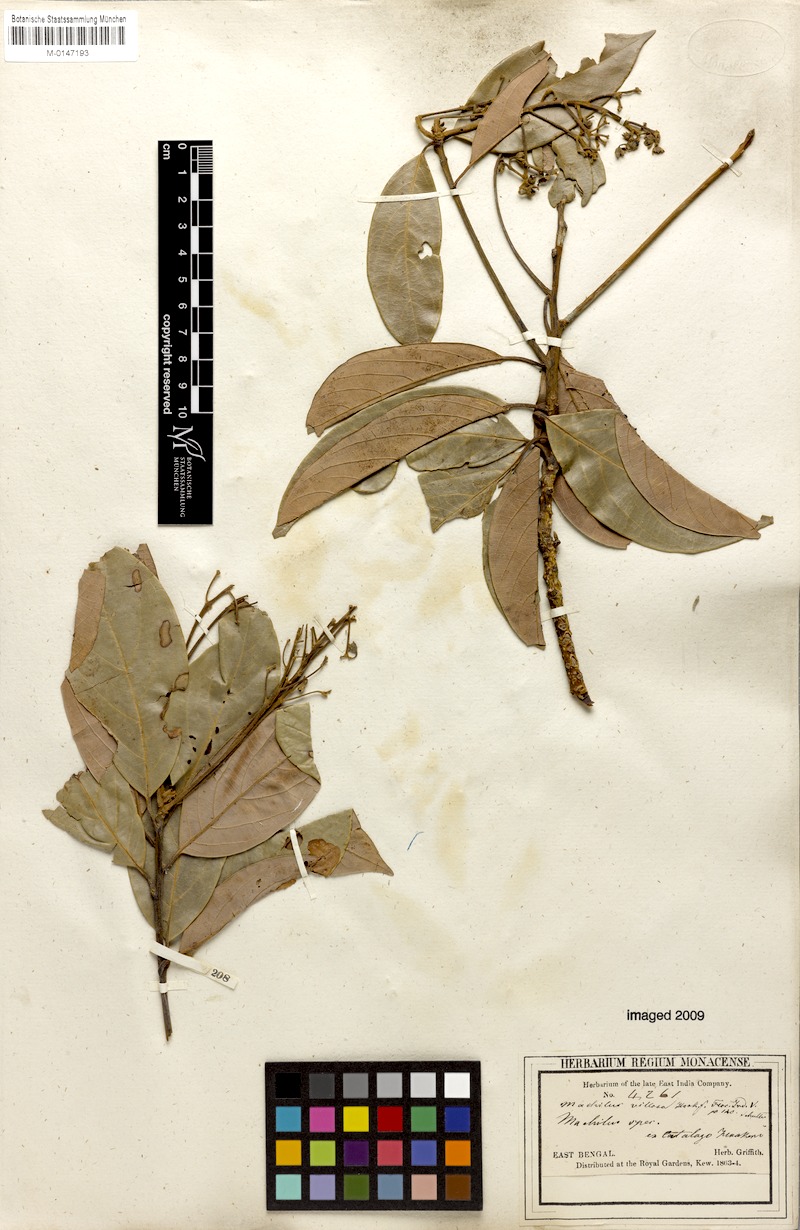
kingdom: Plantae
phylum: Tracheophyta
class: Magnoliopsida
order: Laurales
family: Lauraceae
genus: Machilus
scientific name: Machilus glaucescens
